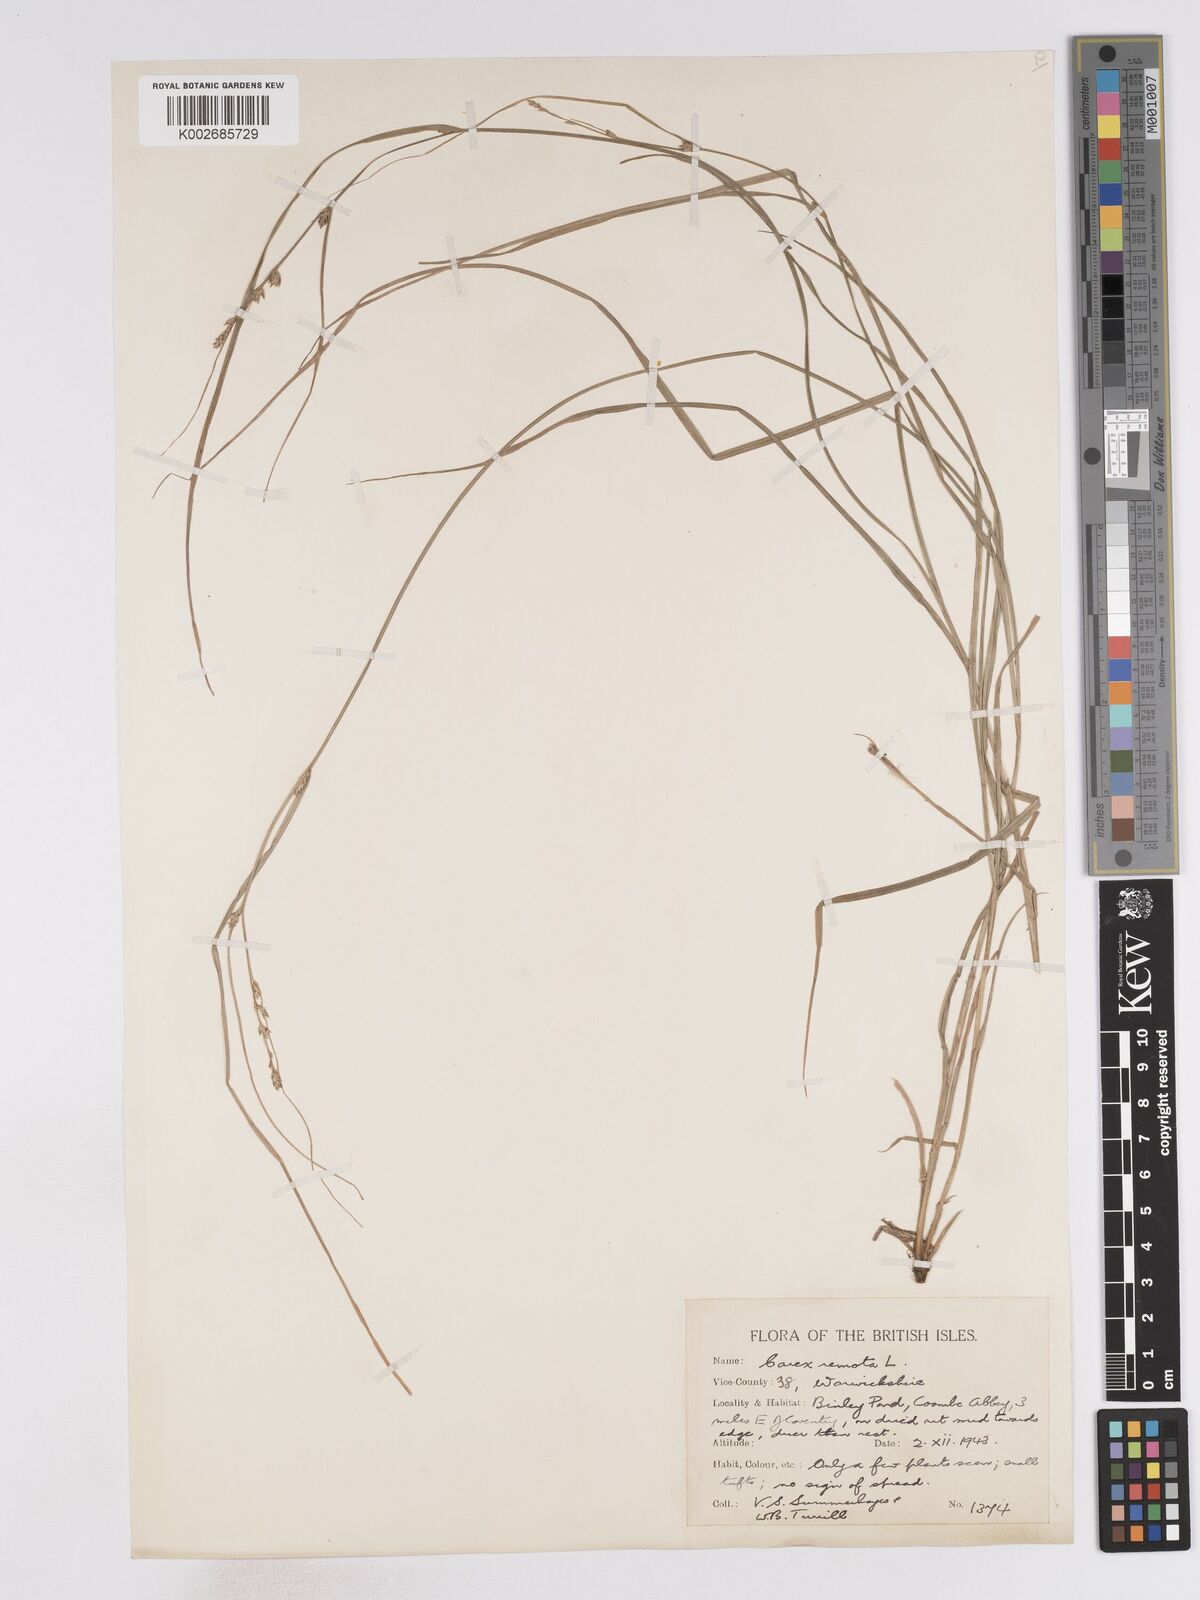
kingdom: Plantae
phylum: Tracheophyta
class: Liliopsida
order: Poales
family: Cyperaceae
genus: Carex
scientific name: Carex remota
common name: Remote sedge
